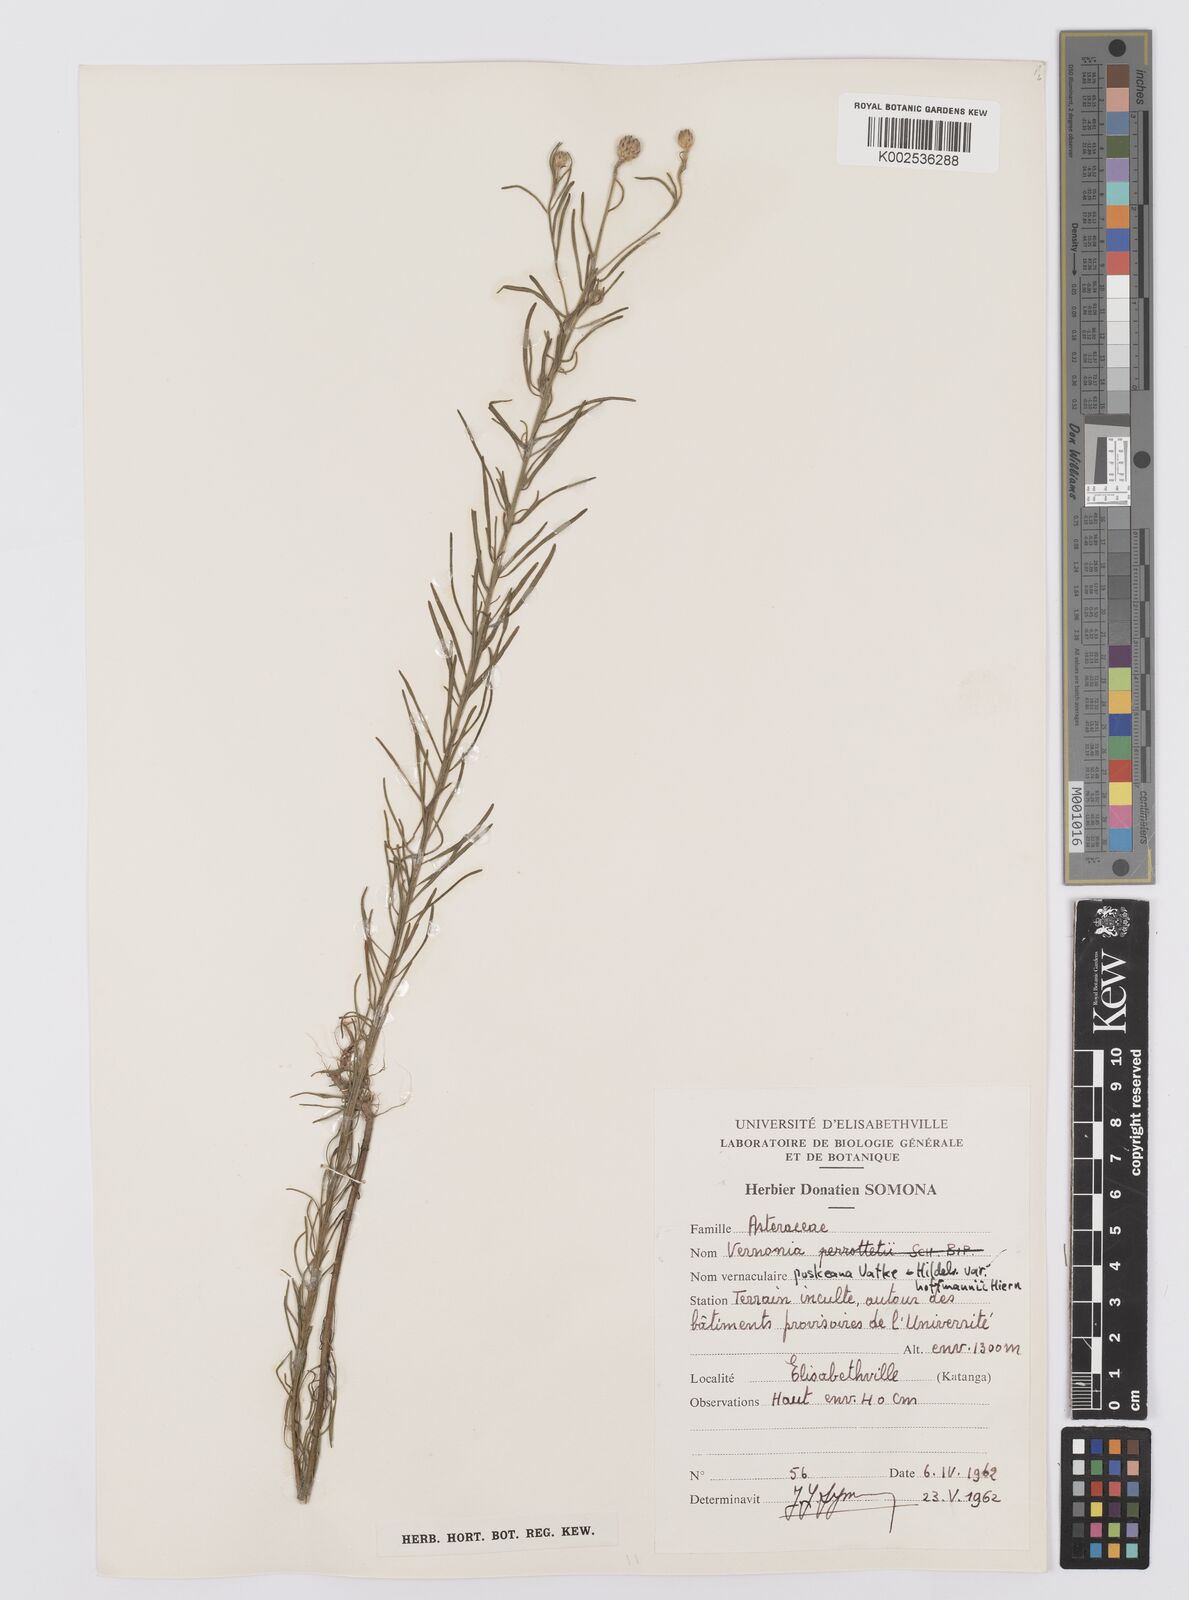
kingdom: Plantae
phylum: Tracheophyta
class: Magnoliopsida
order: Asterales
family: Asteraceae
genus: Crystallopollen
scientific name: Crystallopollen serratuloides
